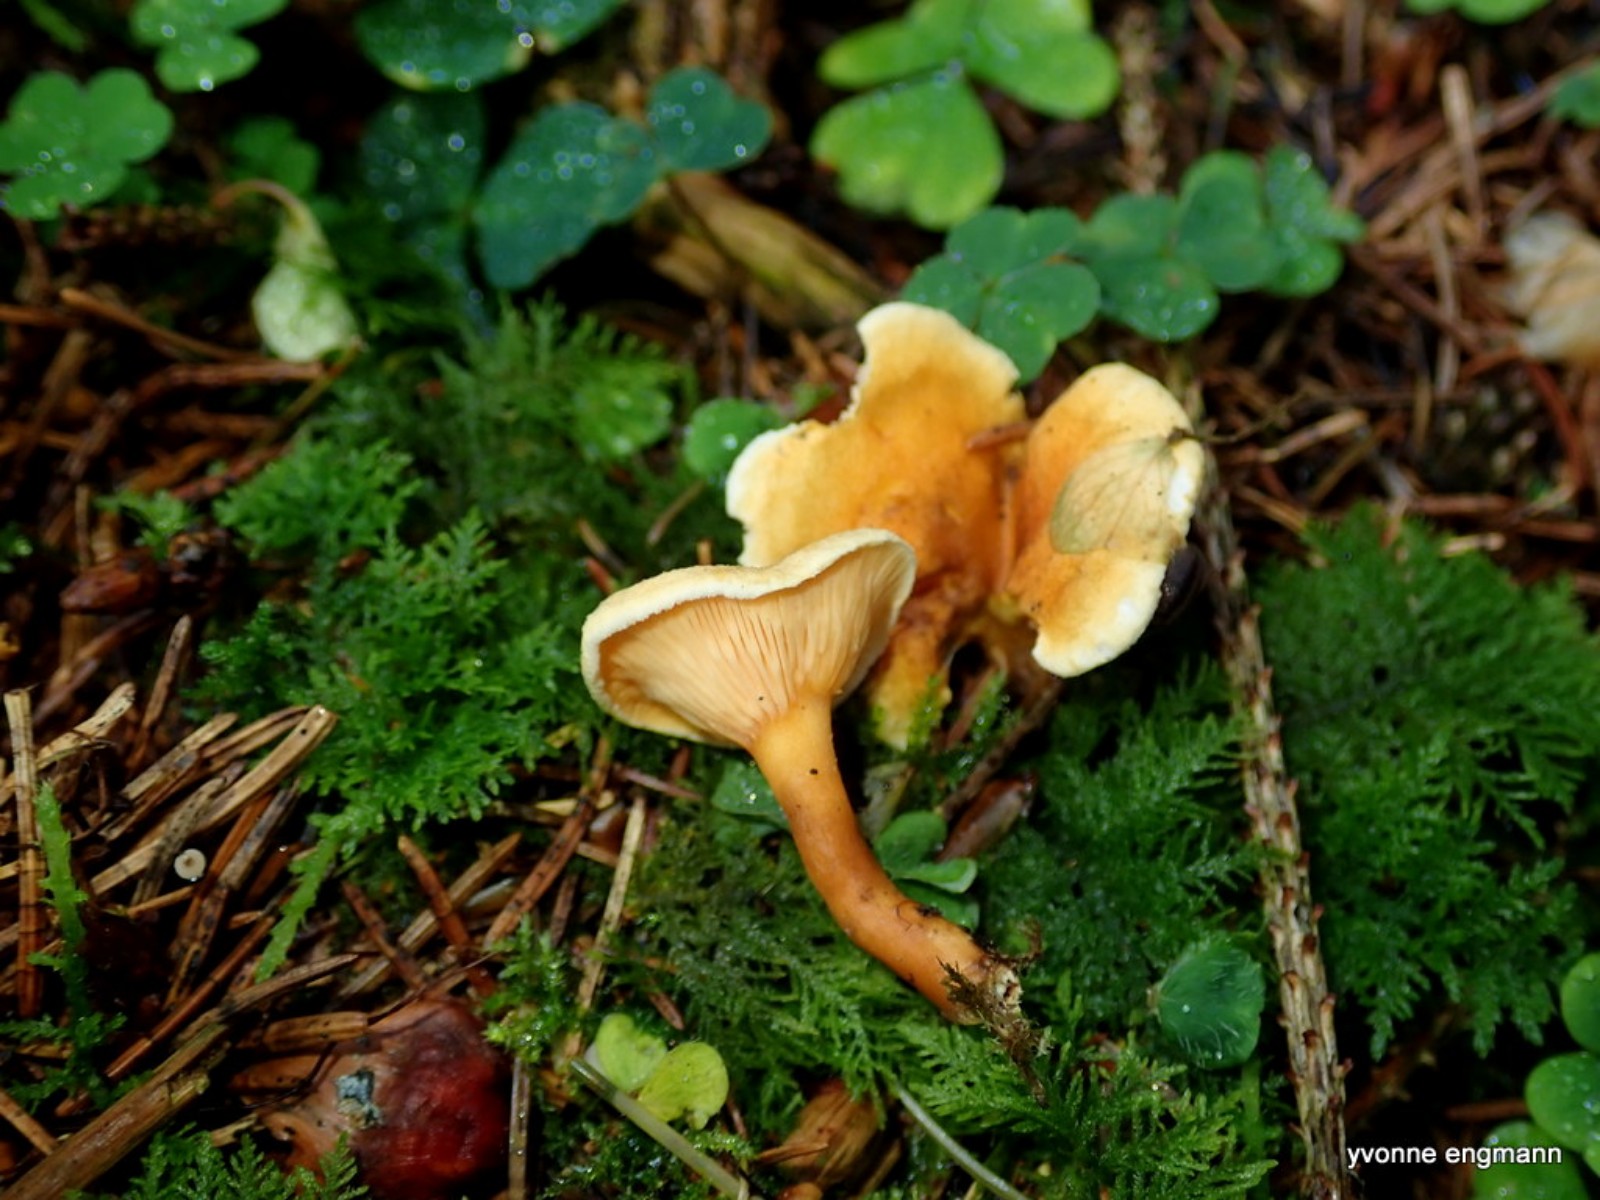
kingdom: Fungi
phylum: Basidiomycota
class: Agaricomycetes
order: Boletales
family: Hygrophoropsidaceae
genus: Hygrophoropsis
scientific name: Hygrophoropsis aurantiaca
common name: almindelig orangekantarel
